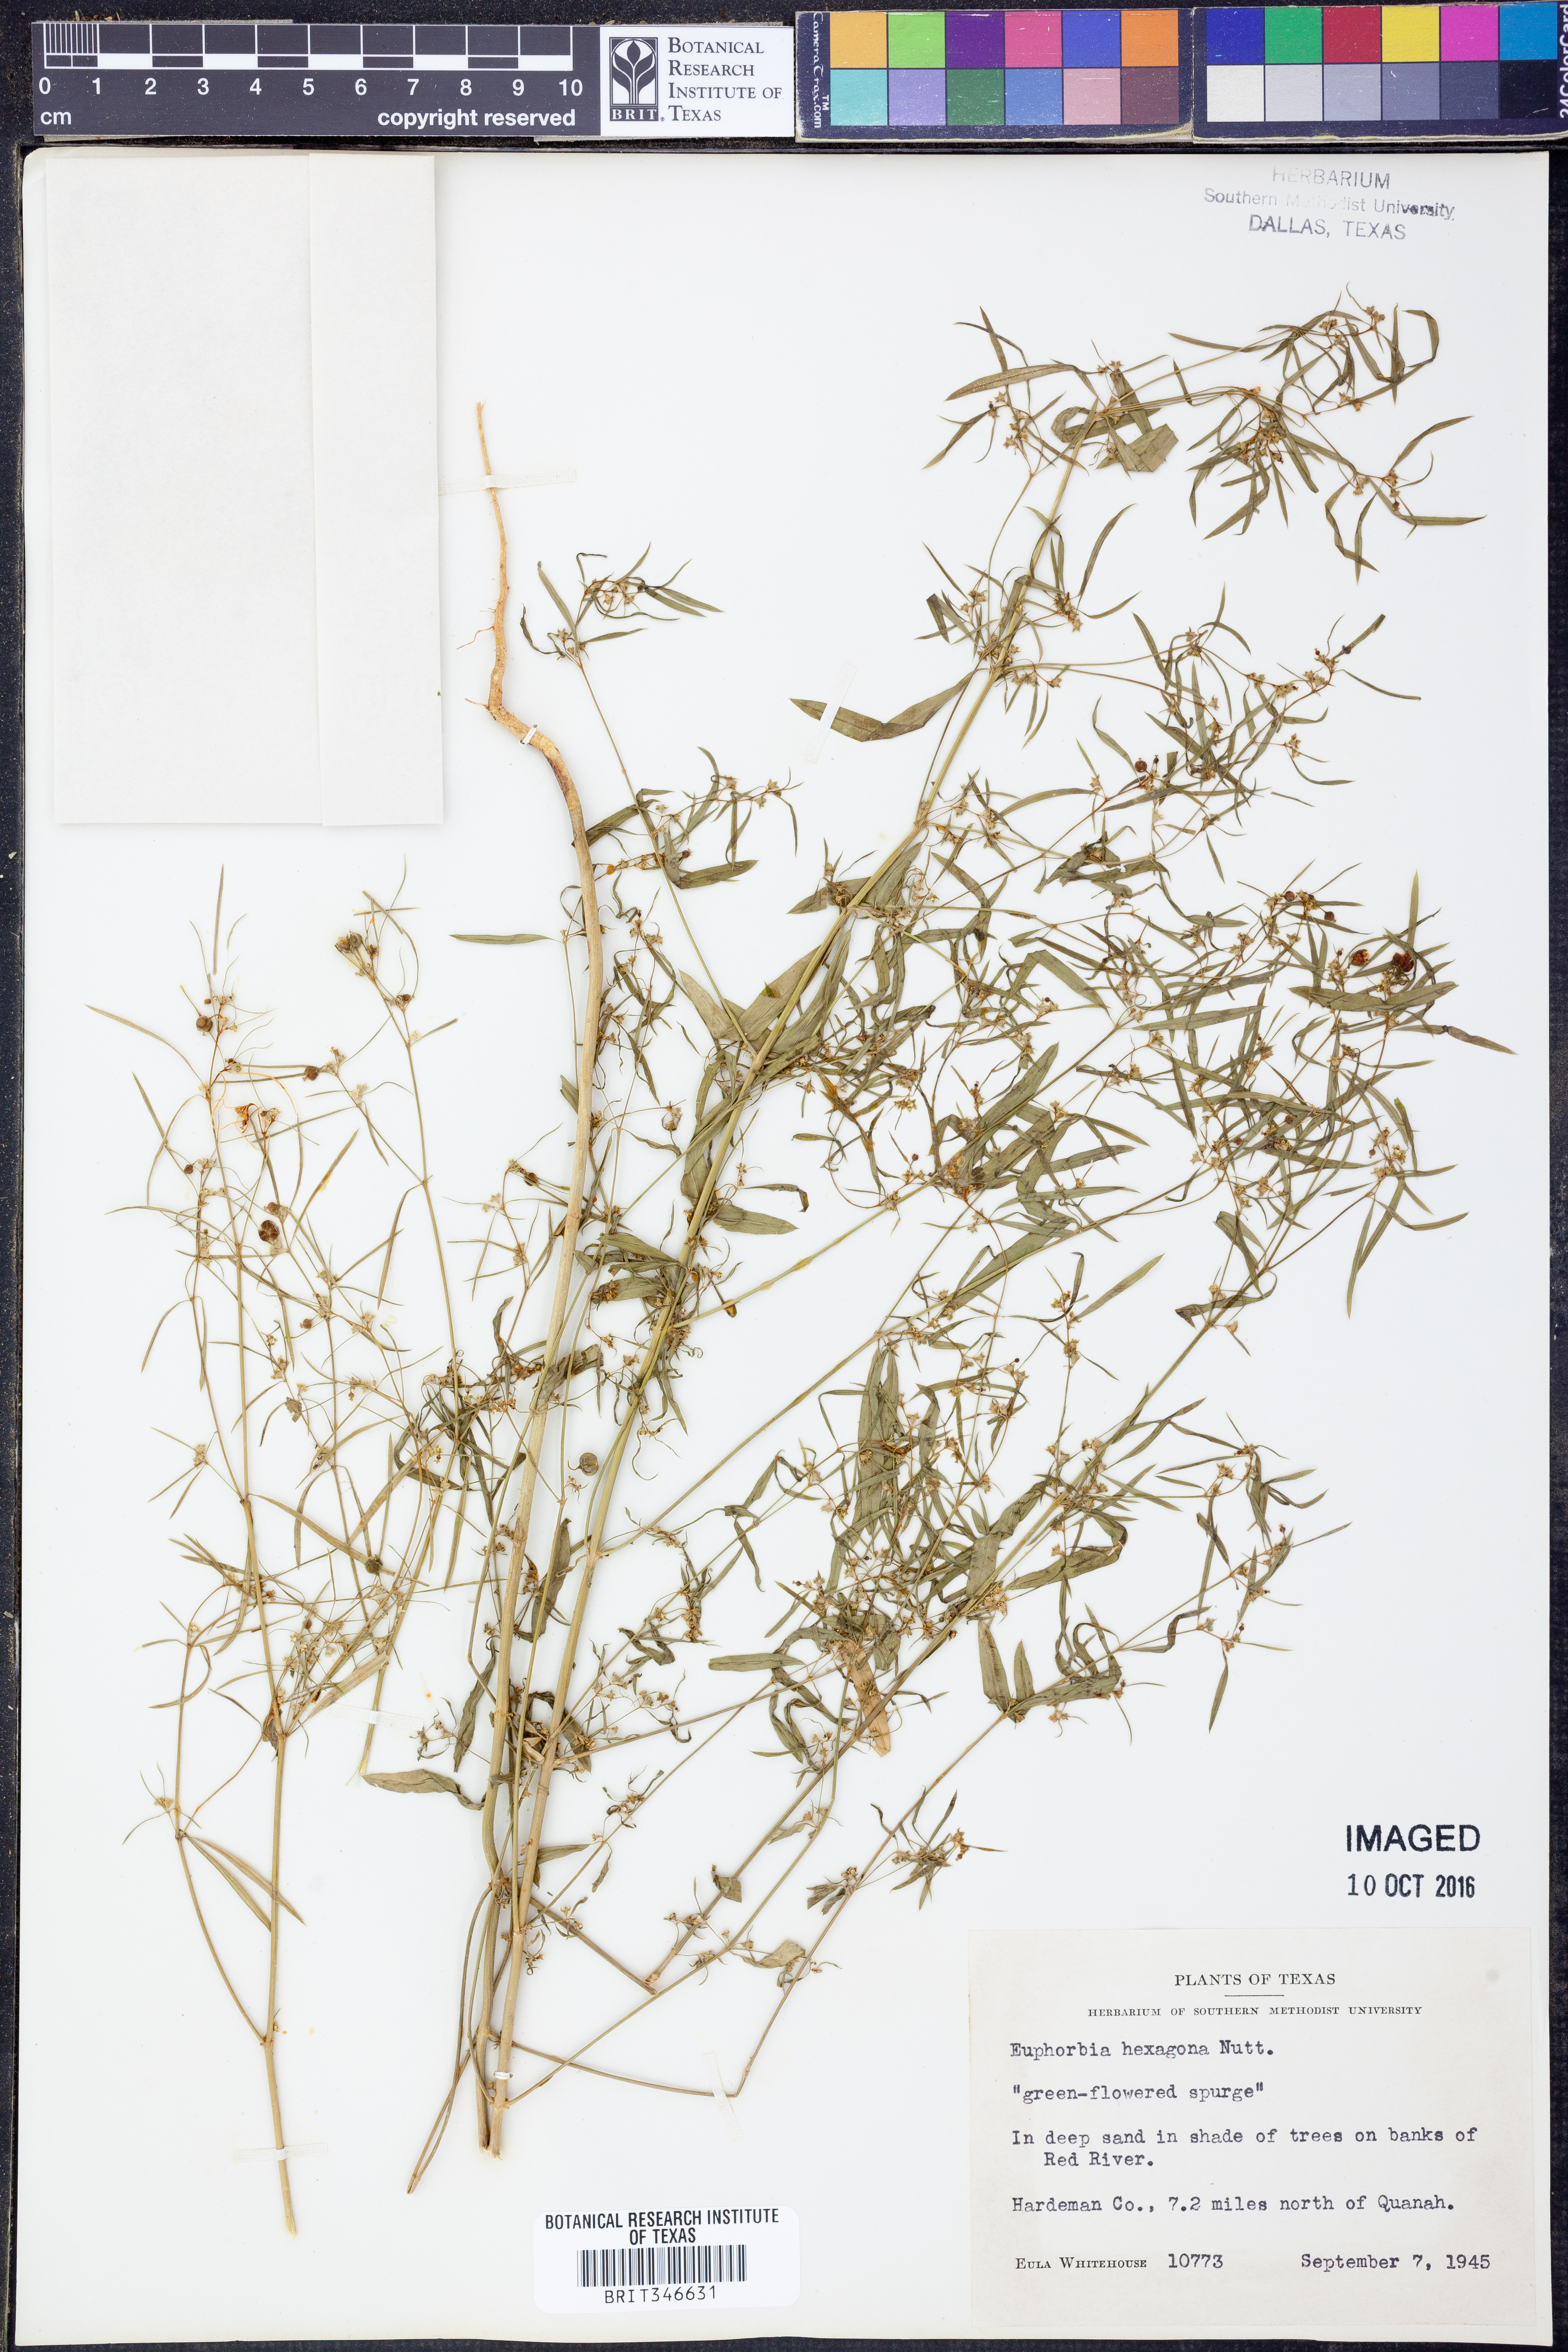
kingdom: Plantae
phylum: Tracheophyta
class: Magnoliopsida
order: Malpighiales
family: Euphorbiaceae
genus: Euphorbia
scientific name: Euphorbia hexagona
